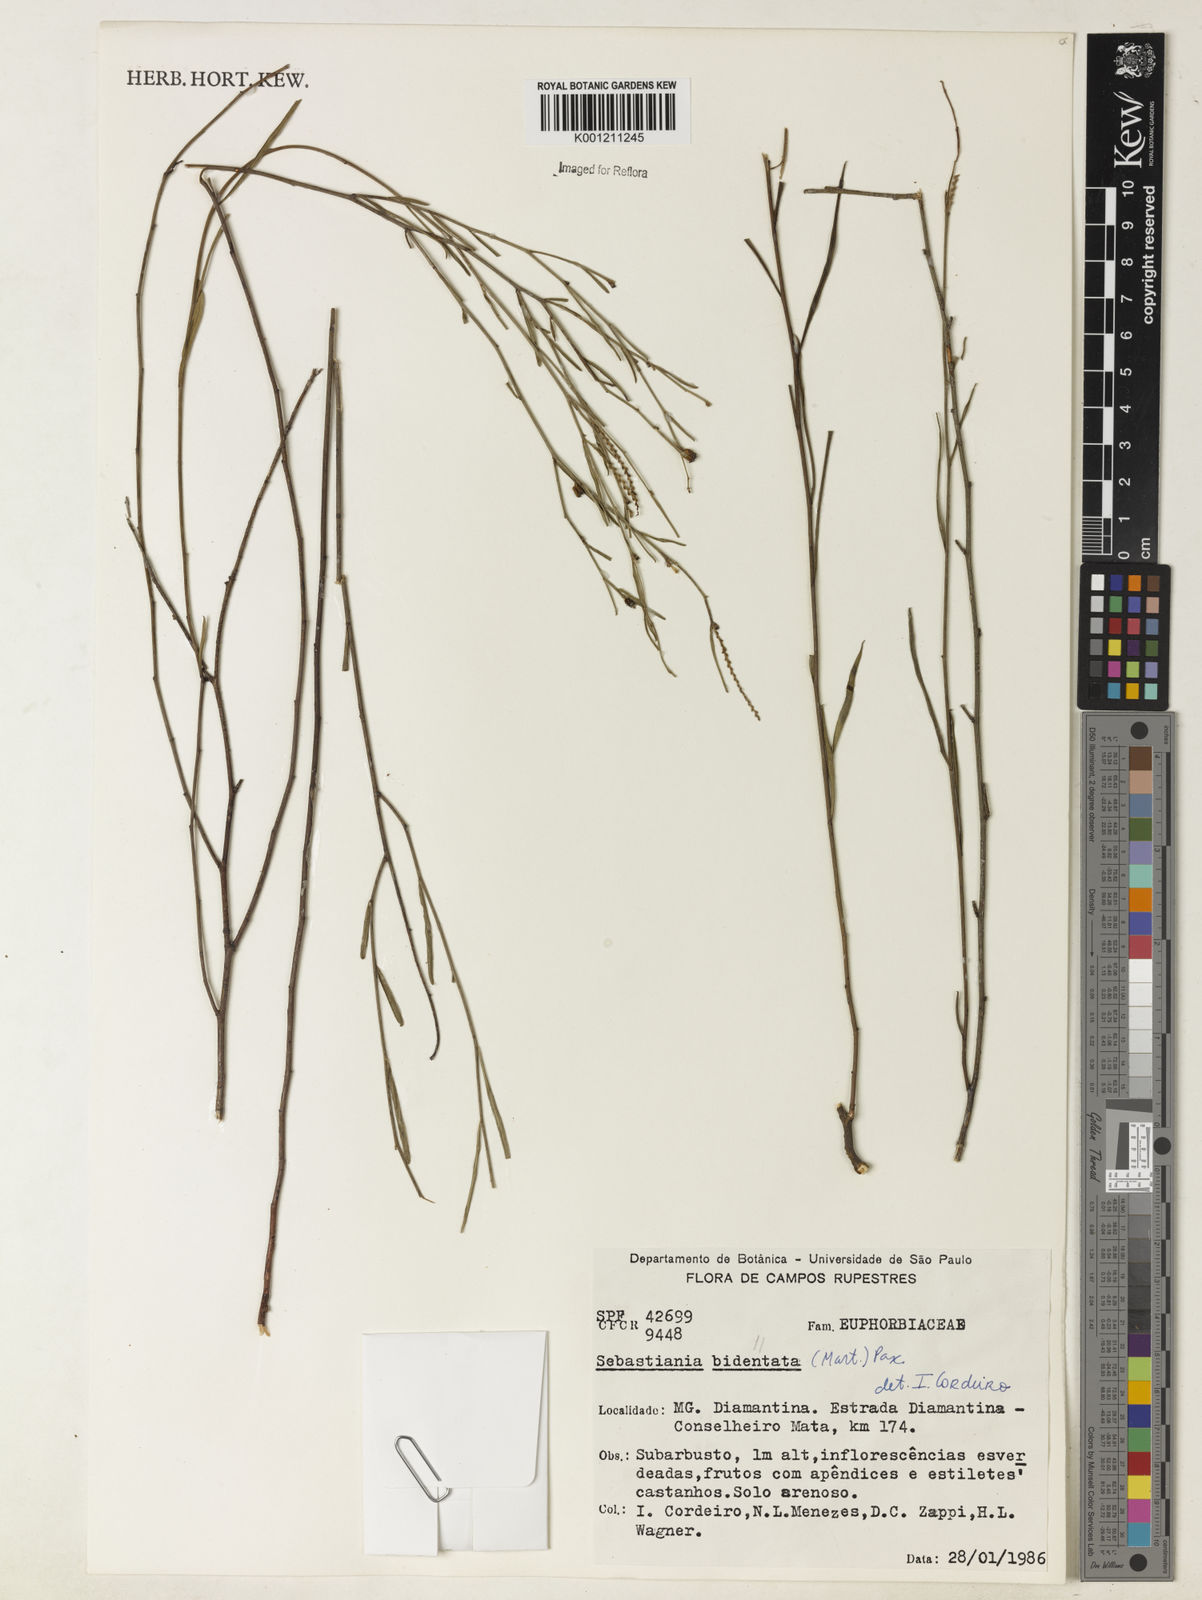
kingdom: Plantae
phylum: Tracheophyta
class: Magnoliopsida
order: Malpighiales
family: Euphorbiaceae
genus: Microstachys
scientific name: Microstachys bidentata
